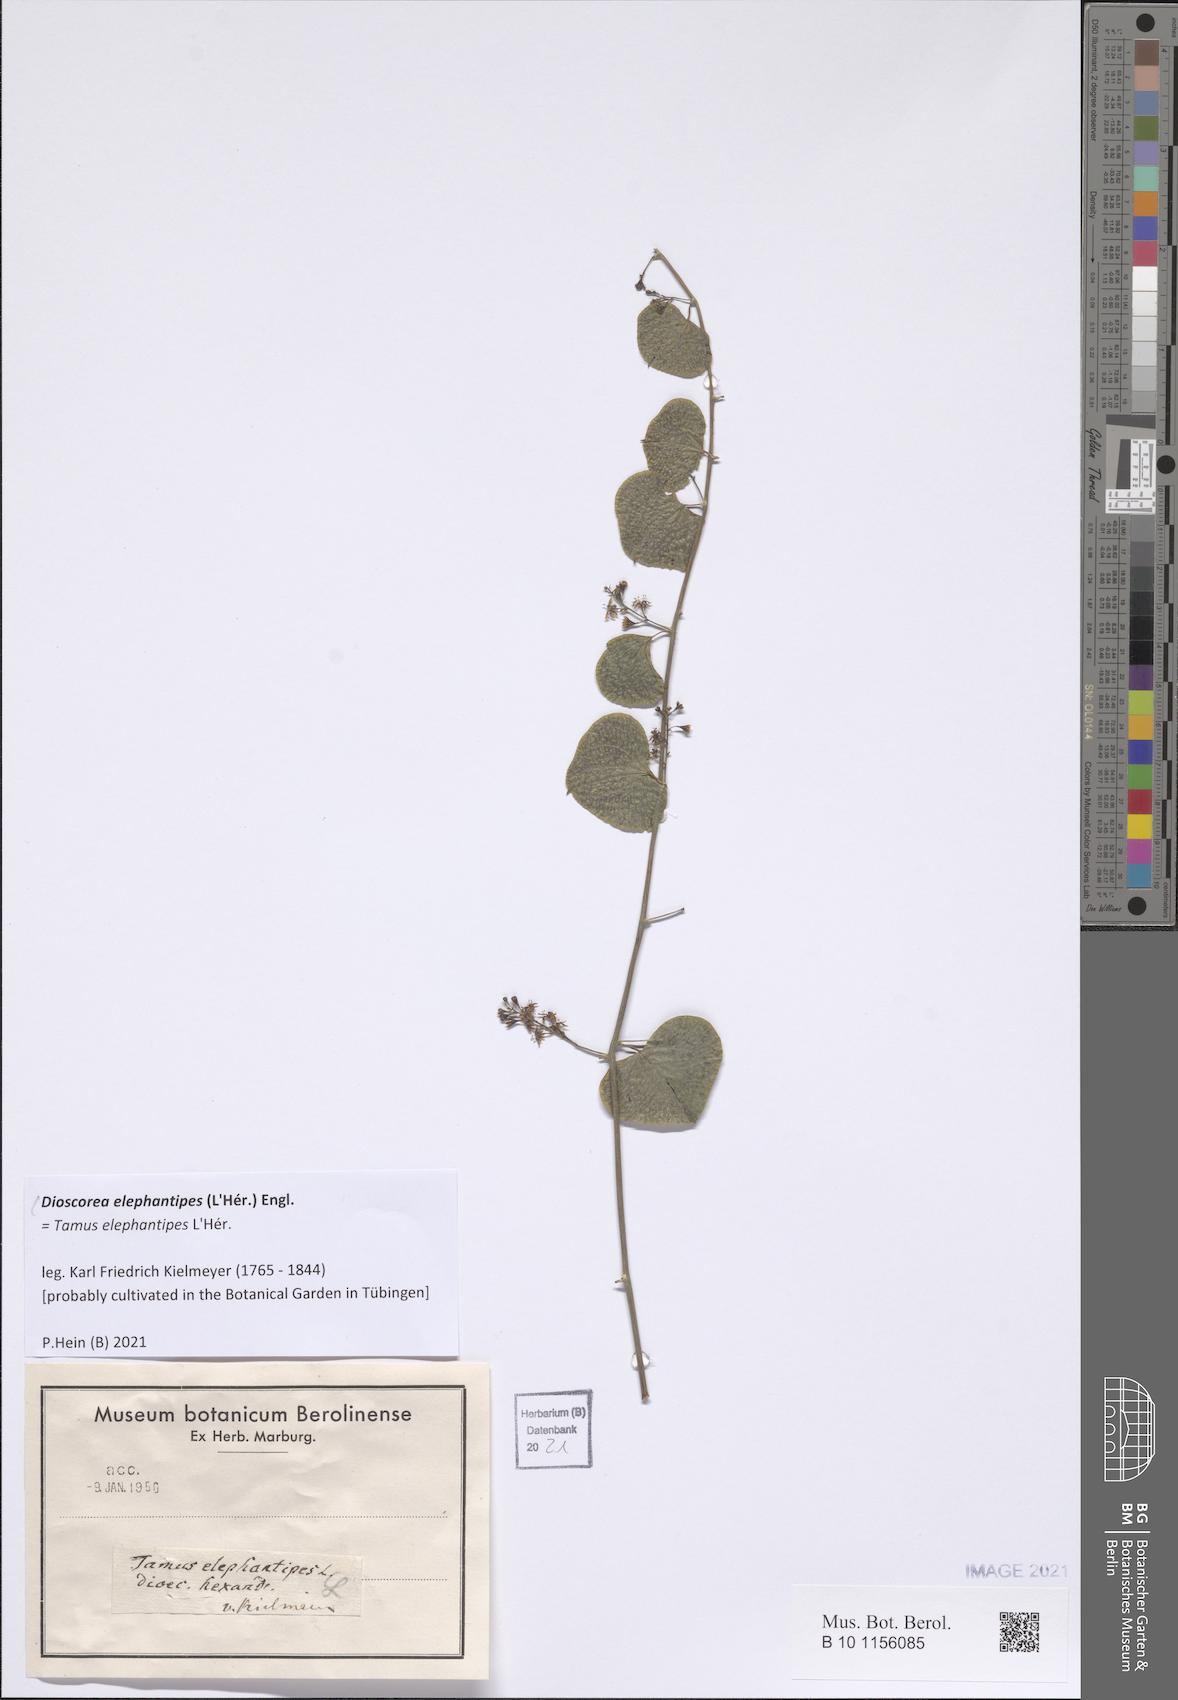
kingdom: Plantae
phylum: Tracheophyta
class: Liliopsida
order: Dioscoreales
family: Dioscoreaceae
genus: Dioscorea
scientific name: Dioscorea elephantipes
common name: Elephant's foot yam
